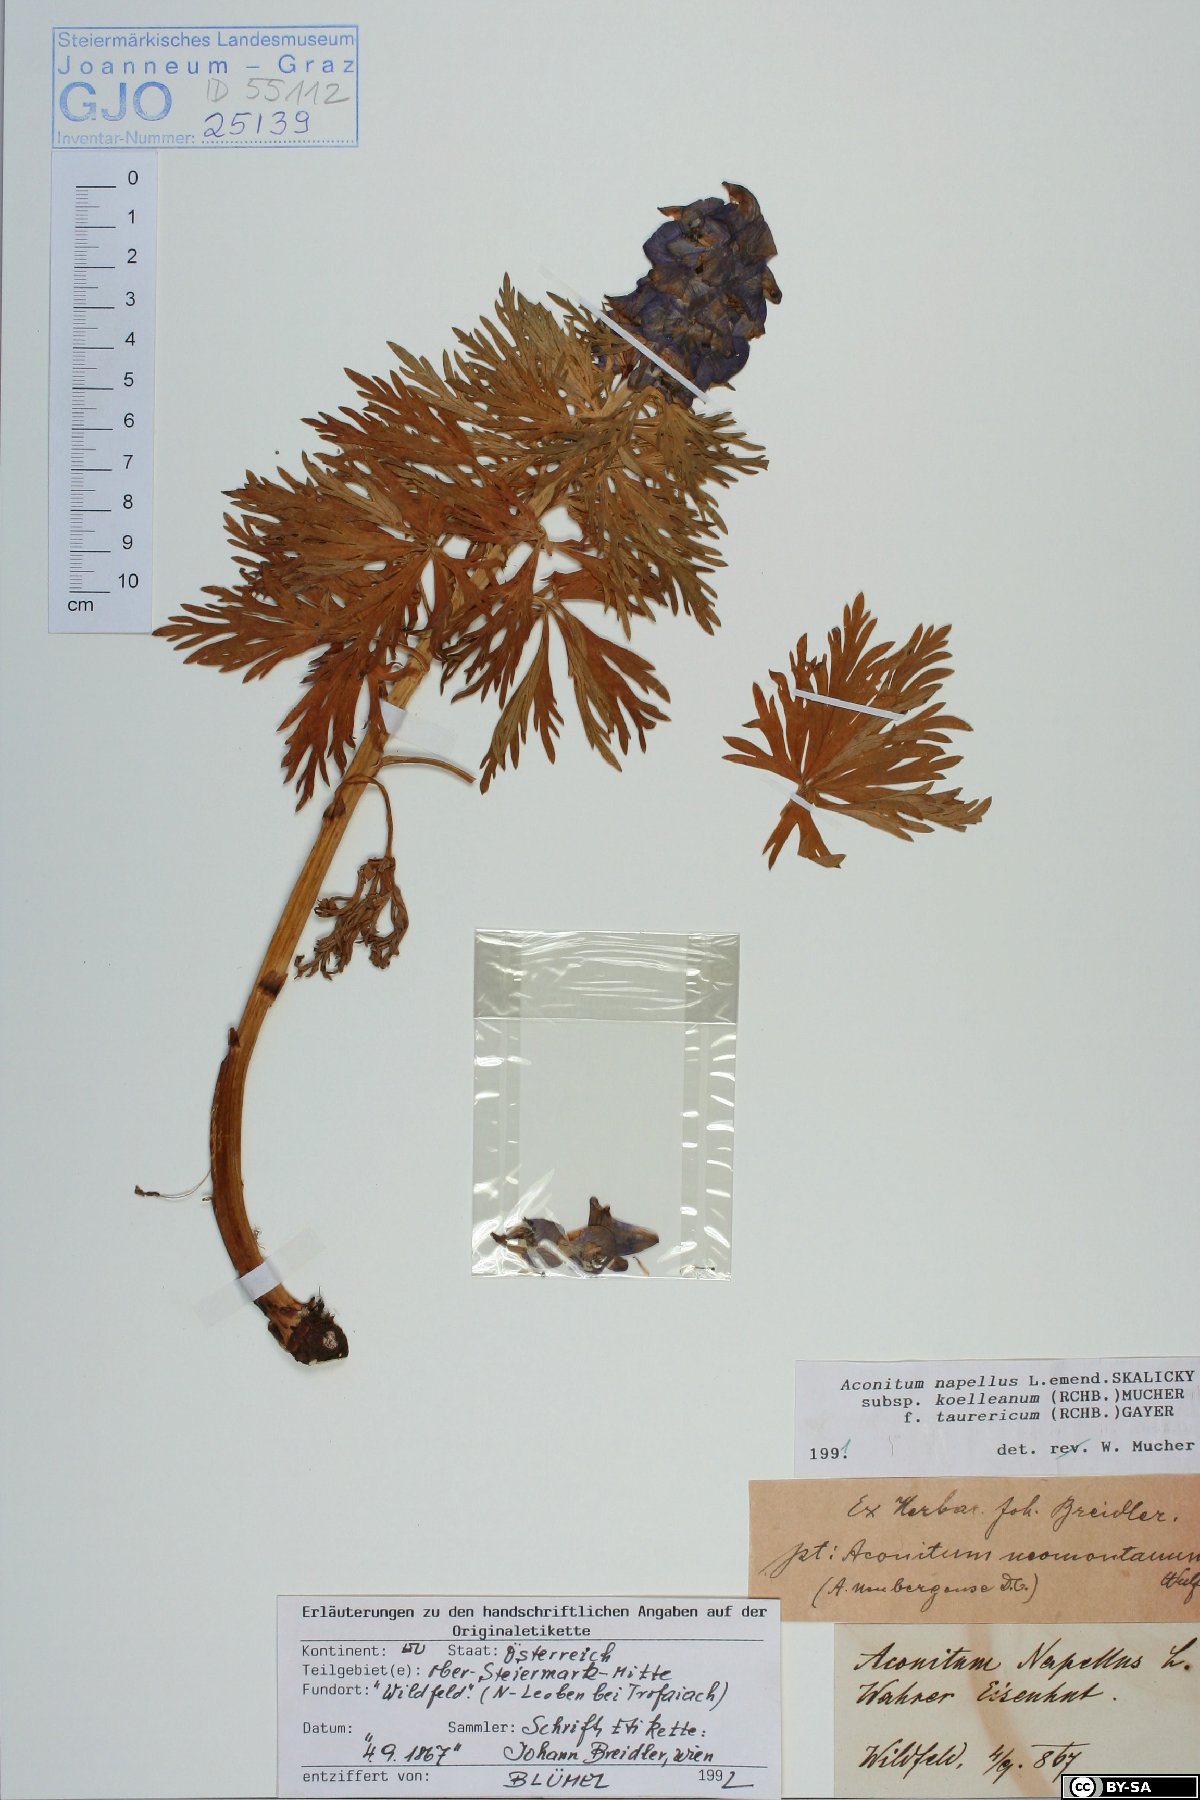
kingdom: Plantae
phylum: Tracheophyta
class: Magnoliopsida
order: Ranunculales
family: Ranunculaceae
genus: Aconitum
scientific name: Aconitum tauricum
